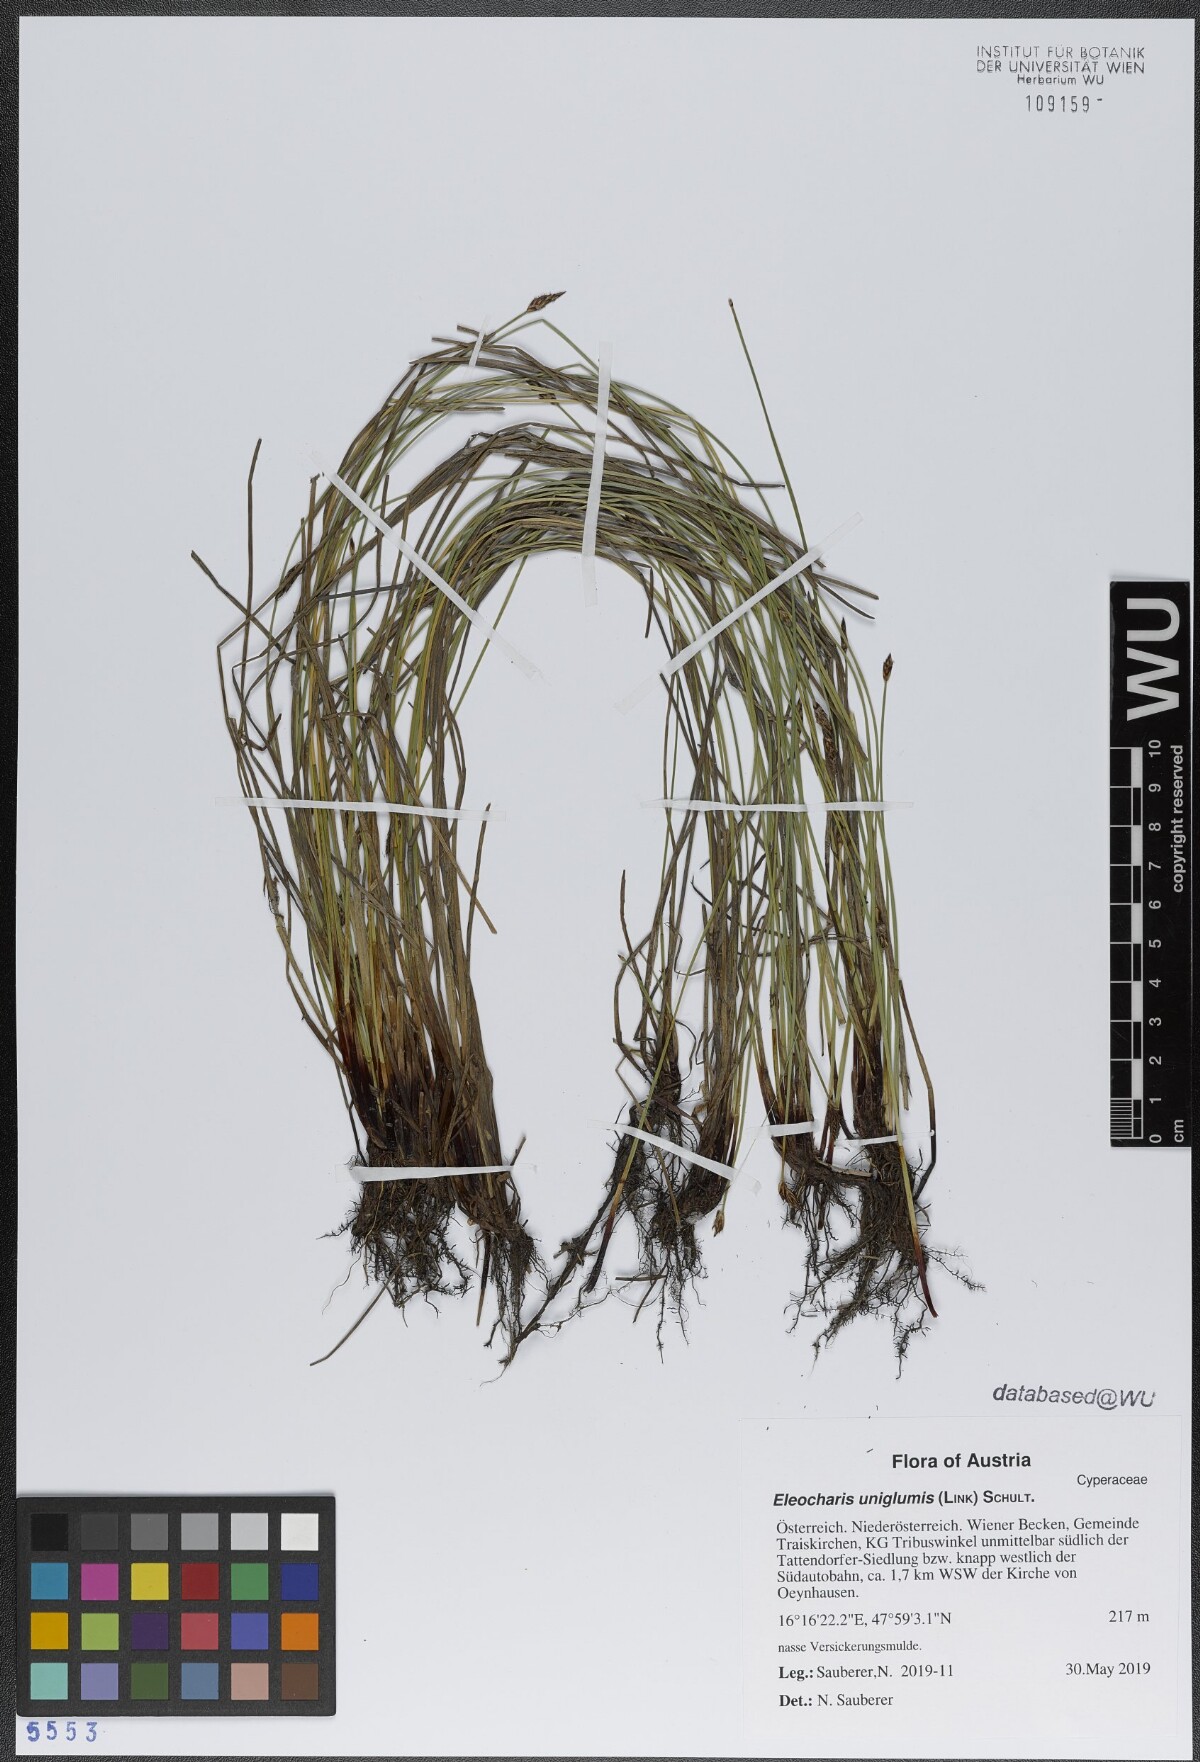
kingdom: Plantae
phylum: Tracheophyta
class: Liliopsida
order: Poales
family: Cyperaceae
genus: Eleocharis
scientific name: Eleocharis uniglumis
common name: Slender spike-rush
